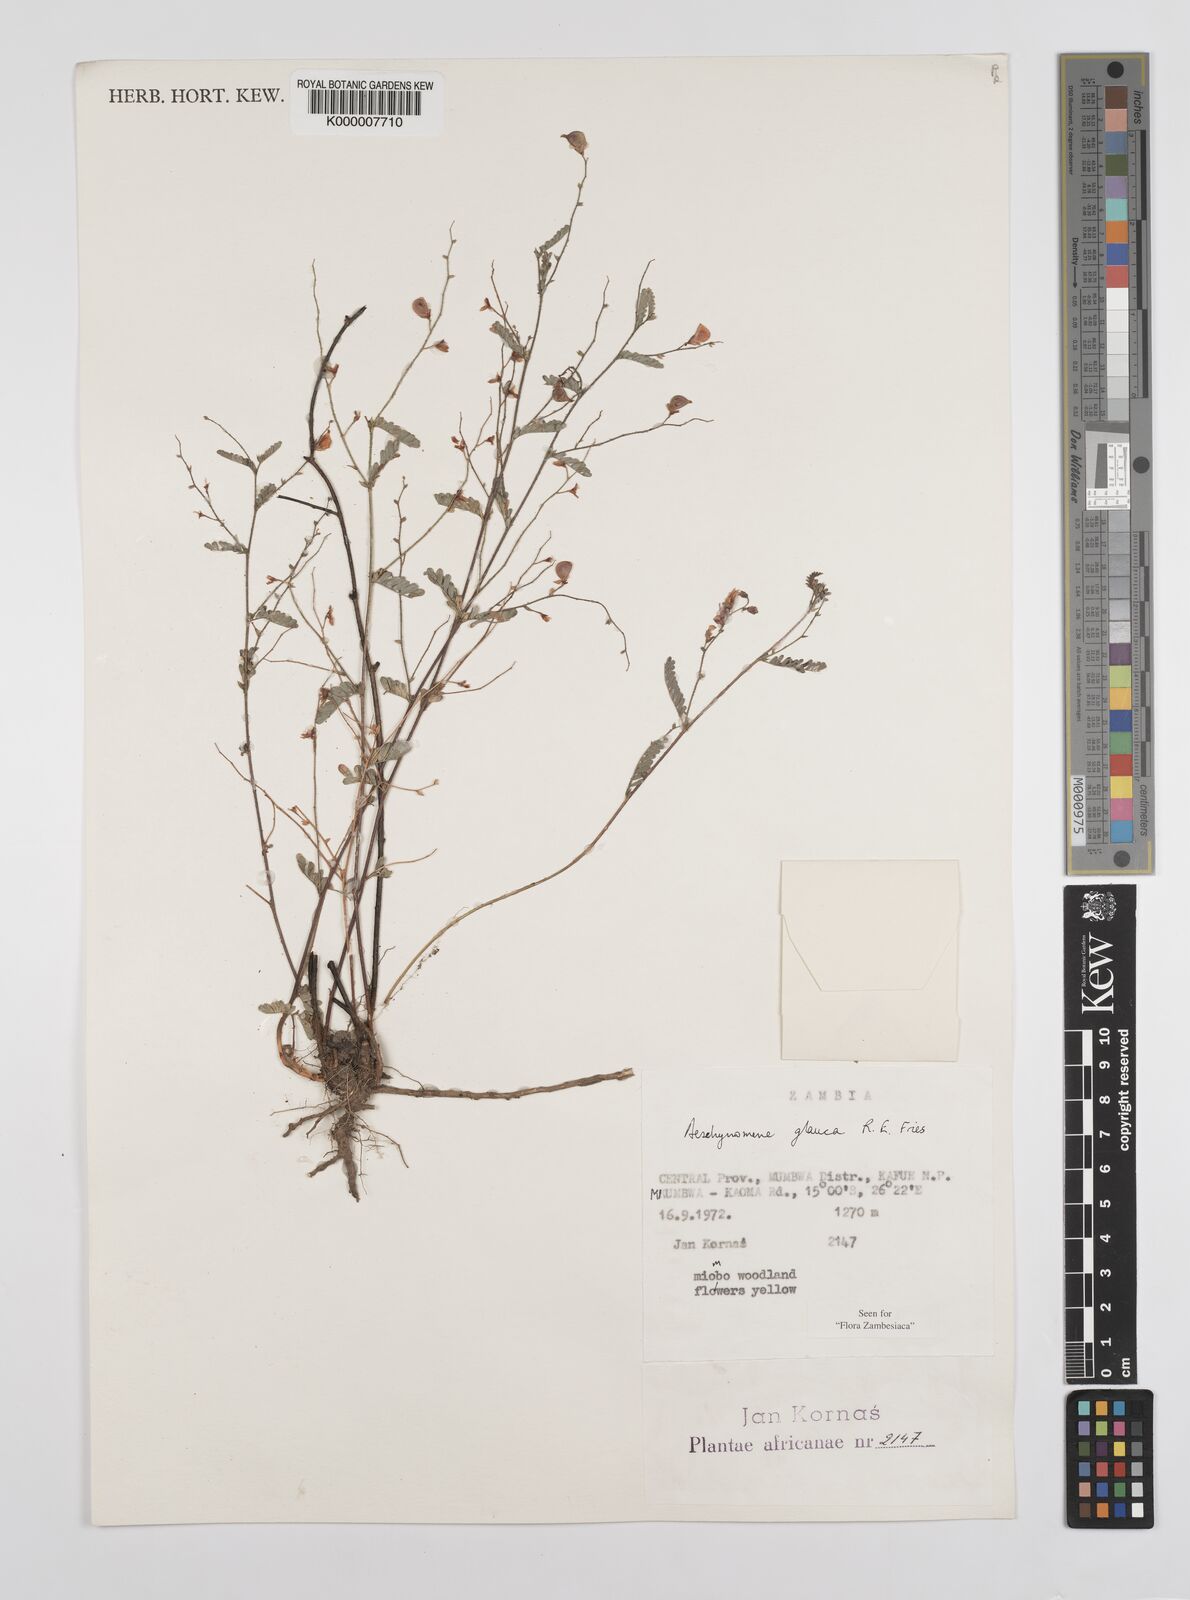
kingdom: Plantae
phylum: Tracheophyta
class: Magnoliopsida
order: Fabales
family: Fabaceae
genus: Aeschynomene
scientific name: Aeschynomene glauca
